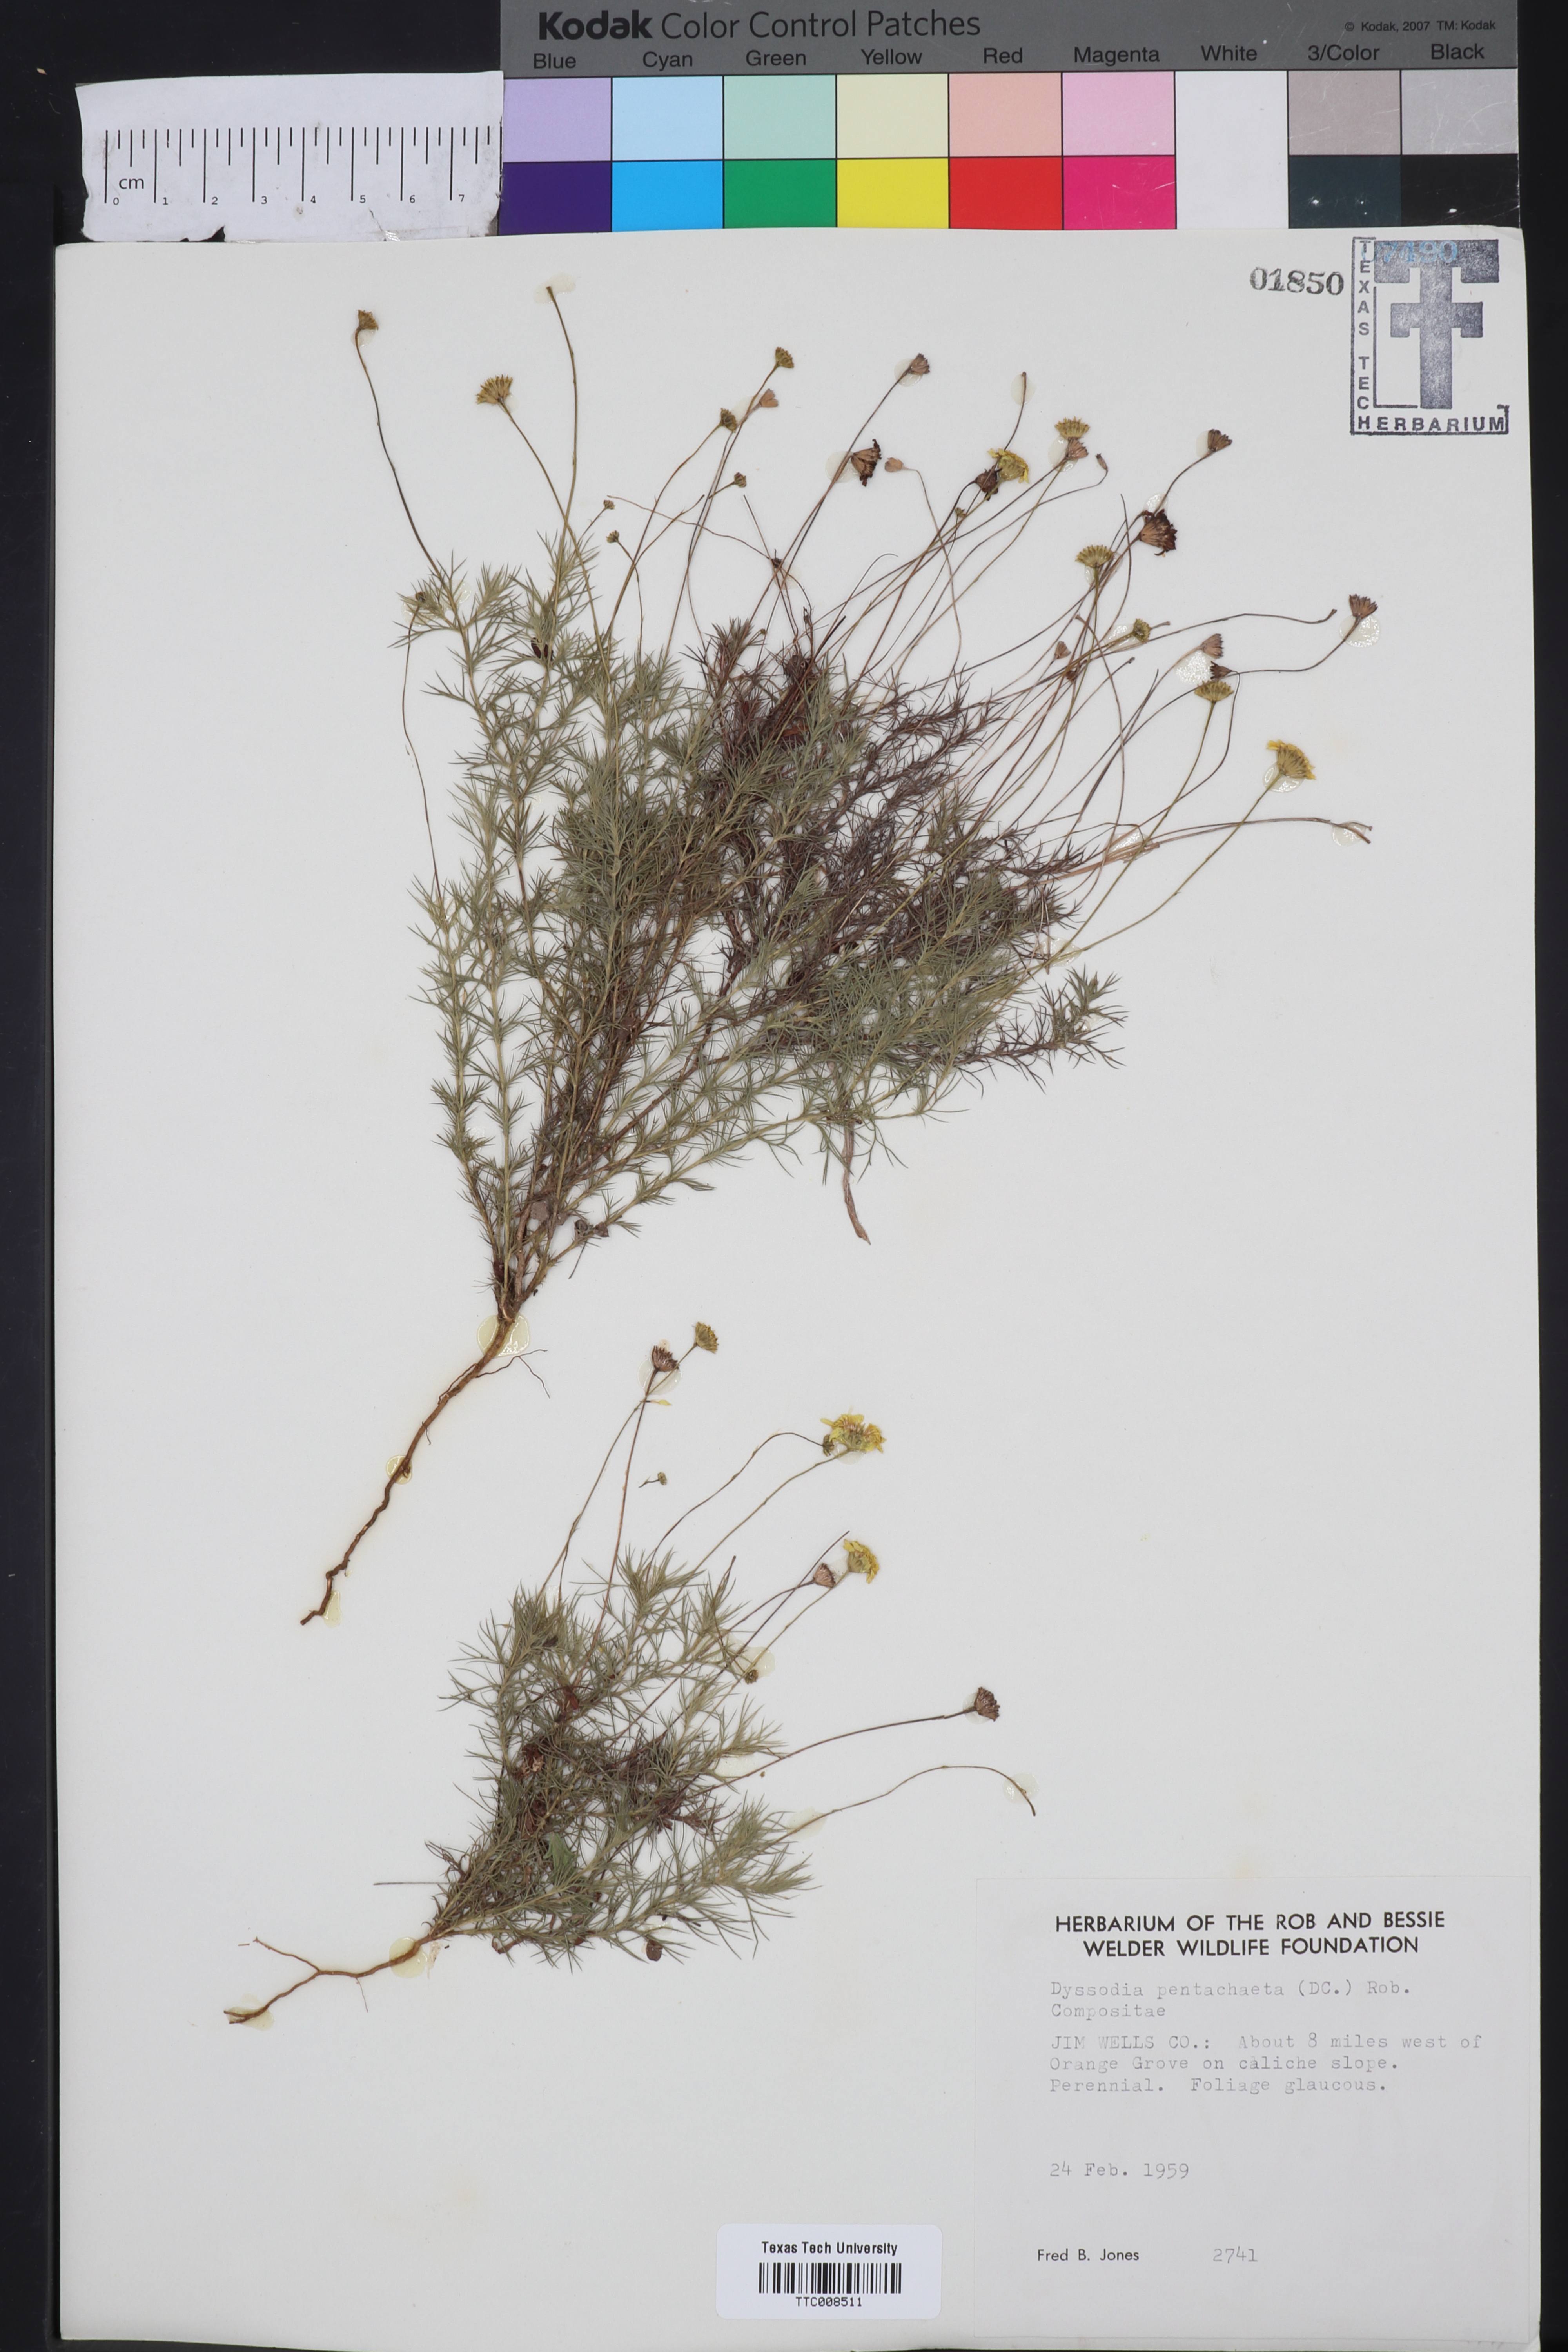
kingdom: Plantae
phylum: Tracheophyta
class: Magnoliopsida
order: Asterales
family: Asteraceae
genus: Thymophylla
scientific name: Thymophylla pentachaeta
